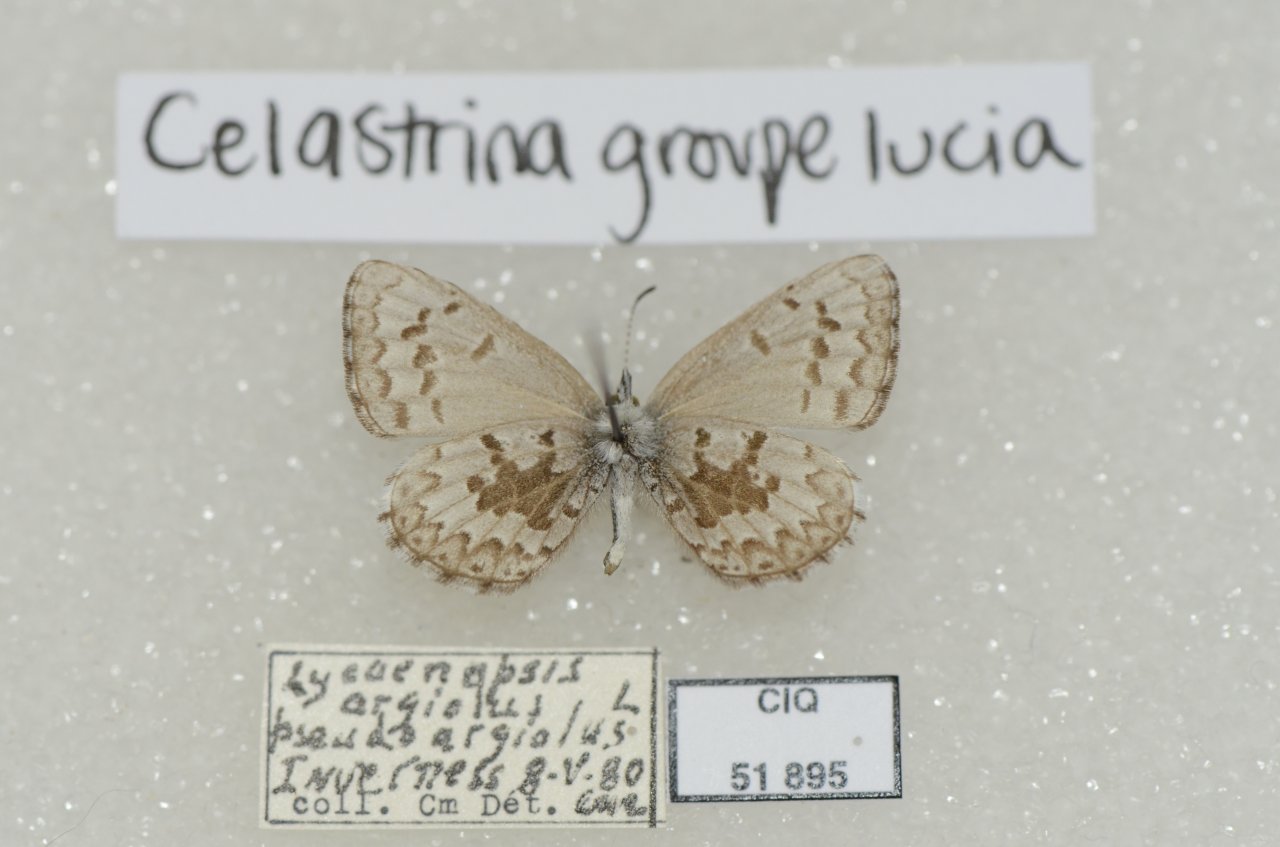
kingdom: Animalia
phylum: Arthropoda
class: Insecta
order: Lepidoptera
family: Lycaenidae
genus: Celastrina
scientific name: Celastrina lucia
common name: Northern Spring Azure
